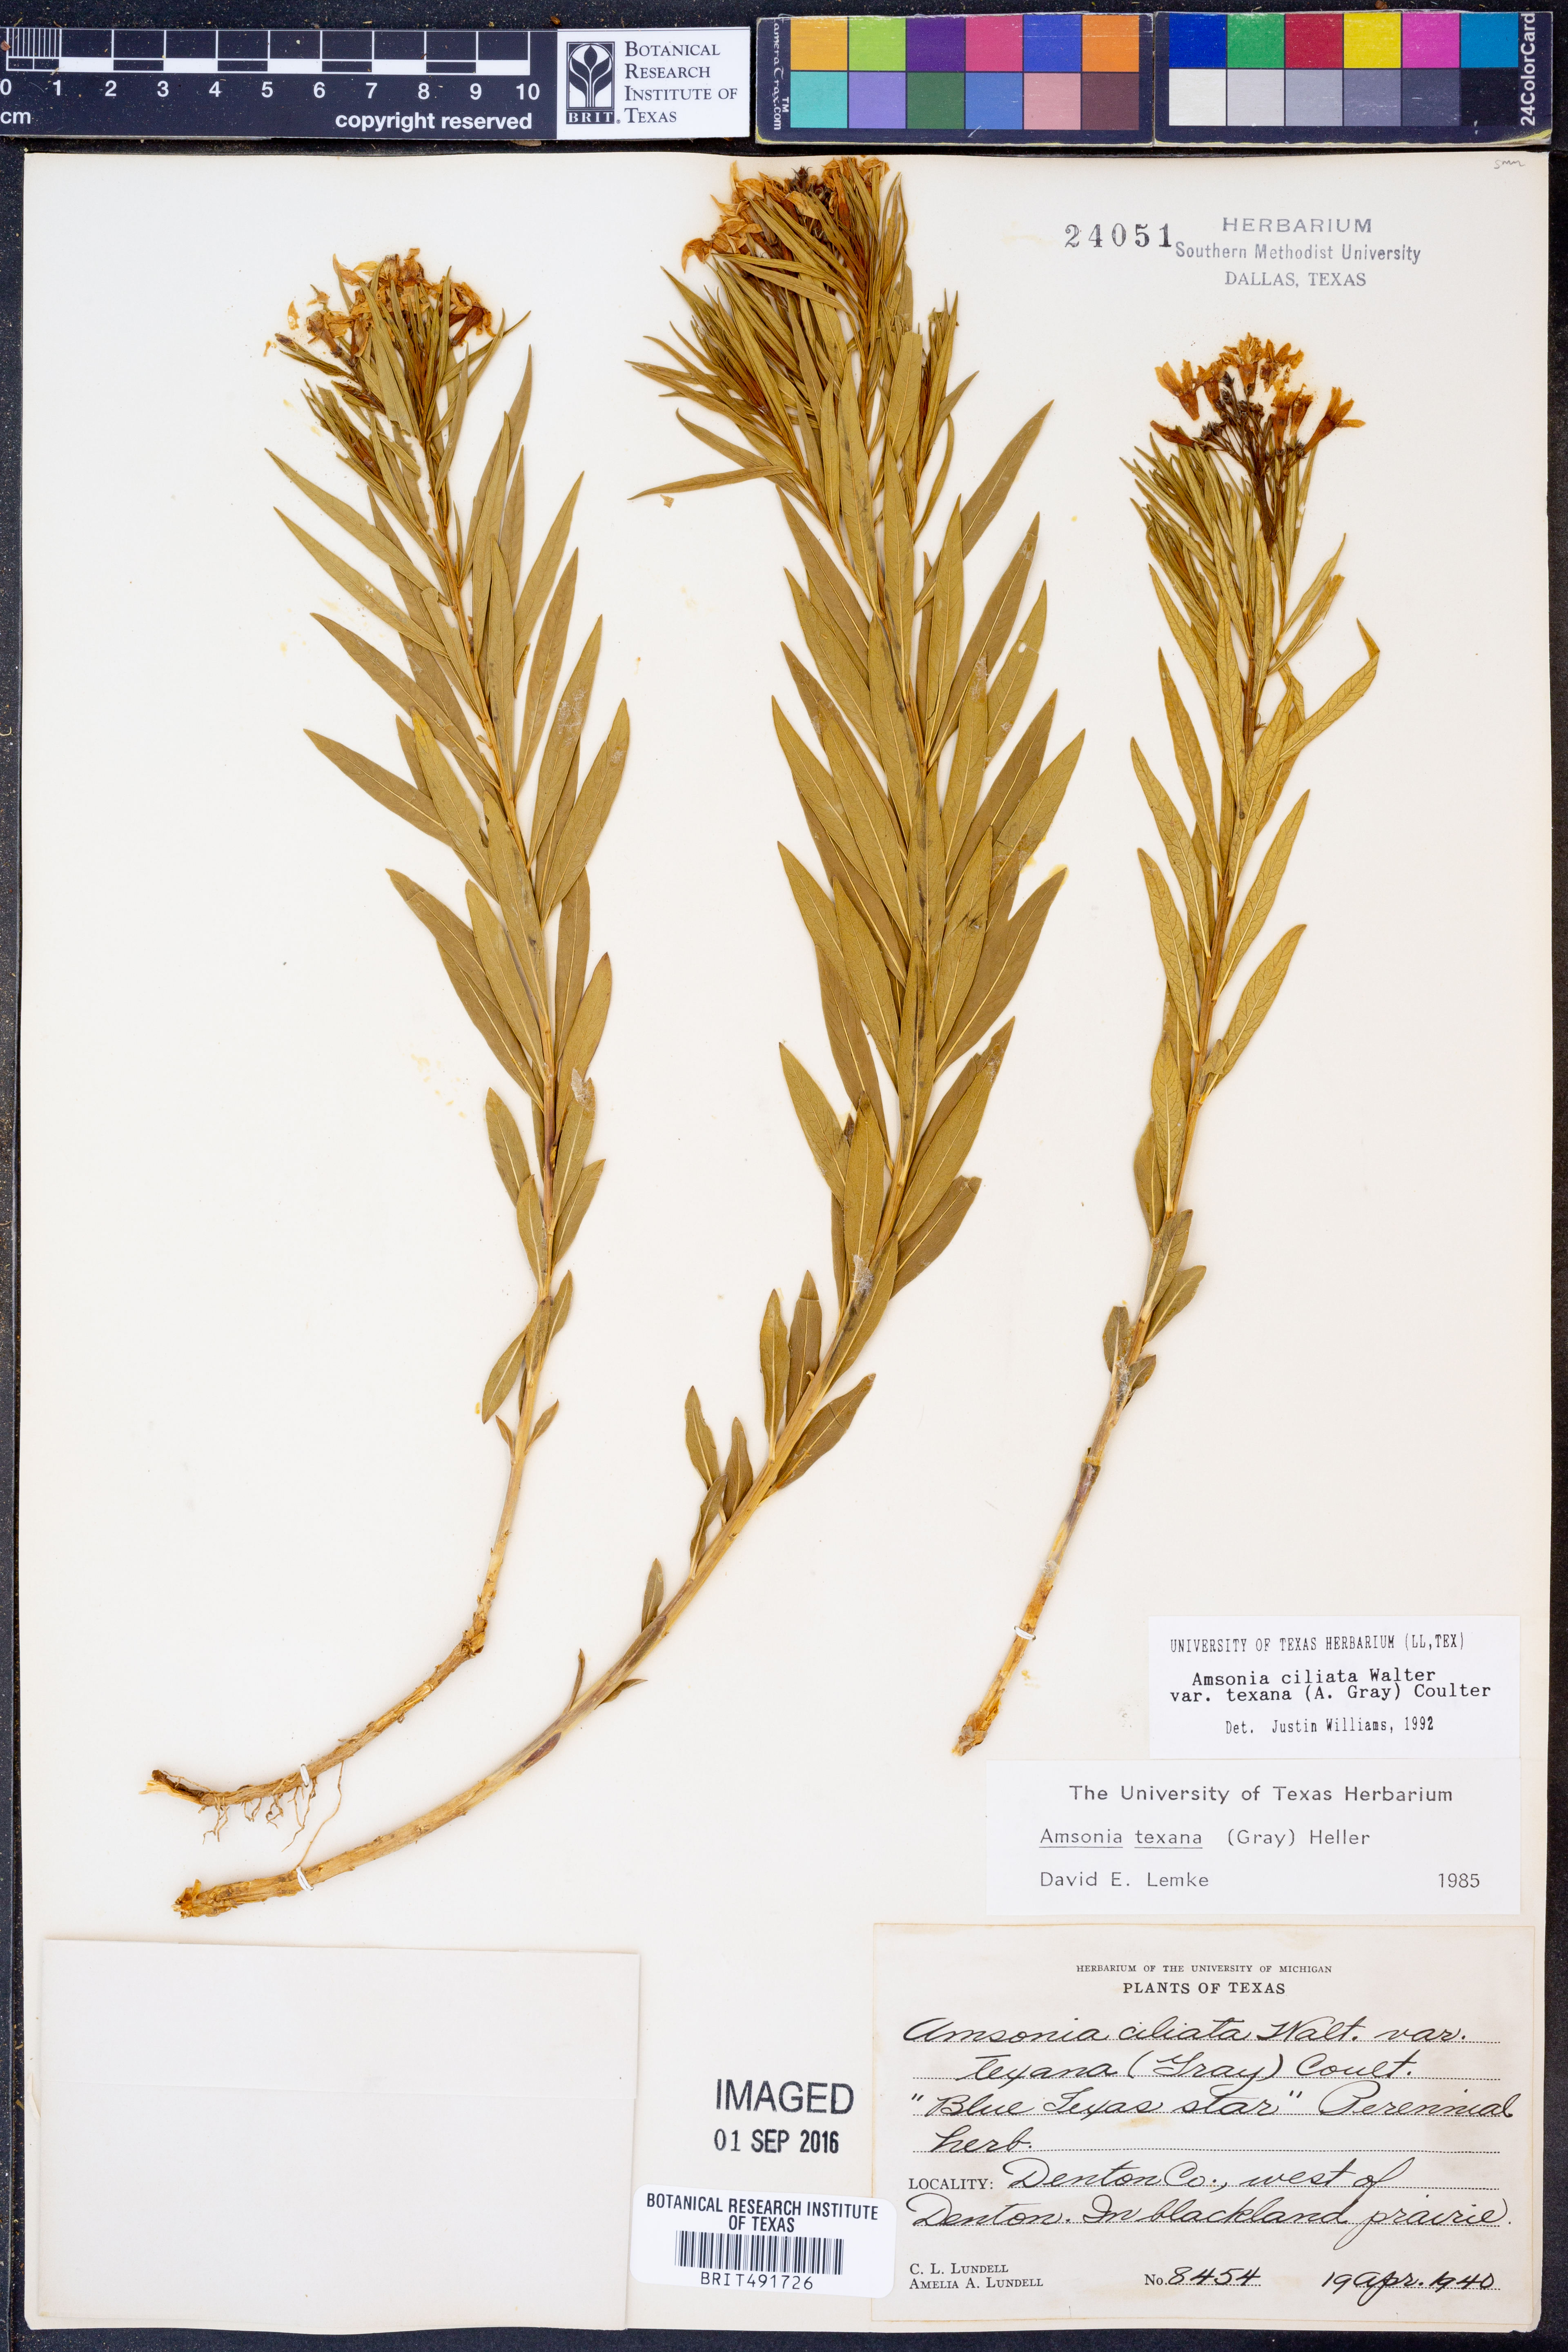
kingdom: Plantae
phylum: Tracheophyta
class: Magnoliopsida
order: Gentianales
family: Apocynaceae
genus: Amsonia
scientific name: Amsonia ciliata
